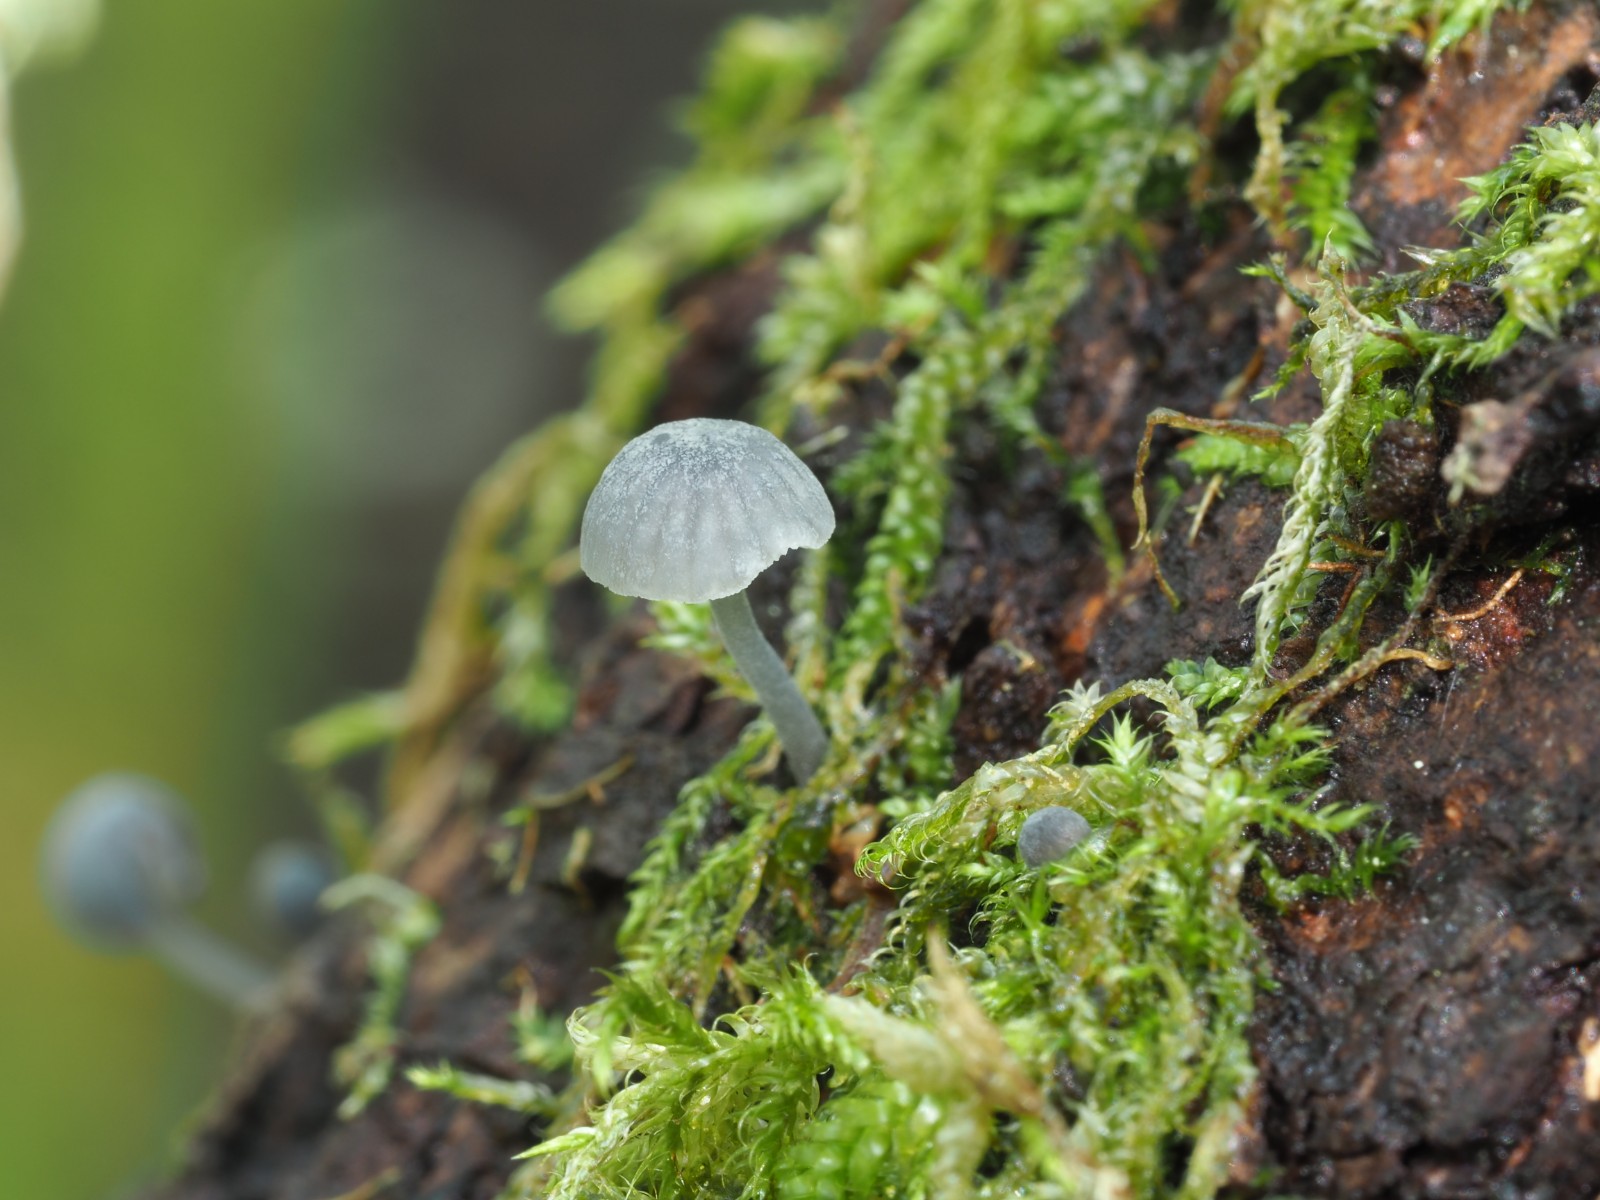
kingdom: Fungi
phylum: Basidiomycota
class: Agaricomycetes
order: Agaricales
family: Mycenaceae
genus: Mycena
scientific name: Mycena pseudocorticola
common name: gråblå bark-huesvamp
